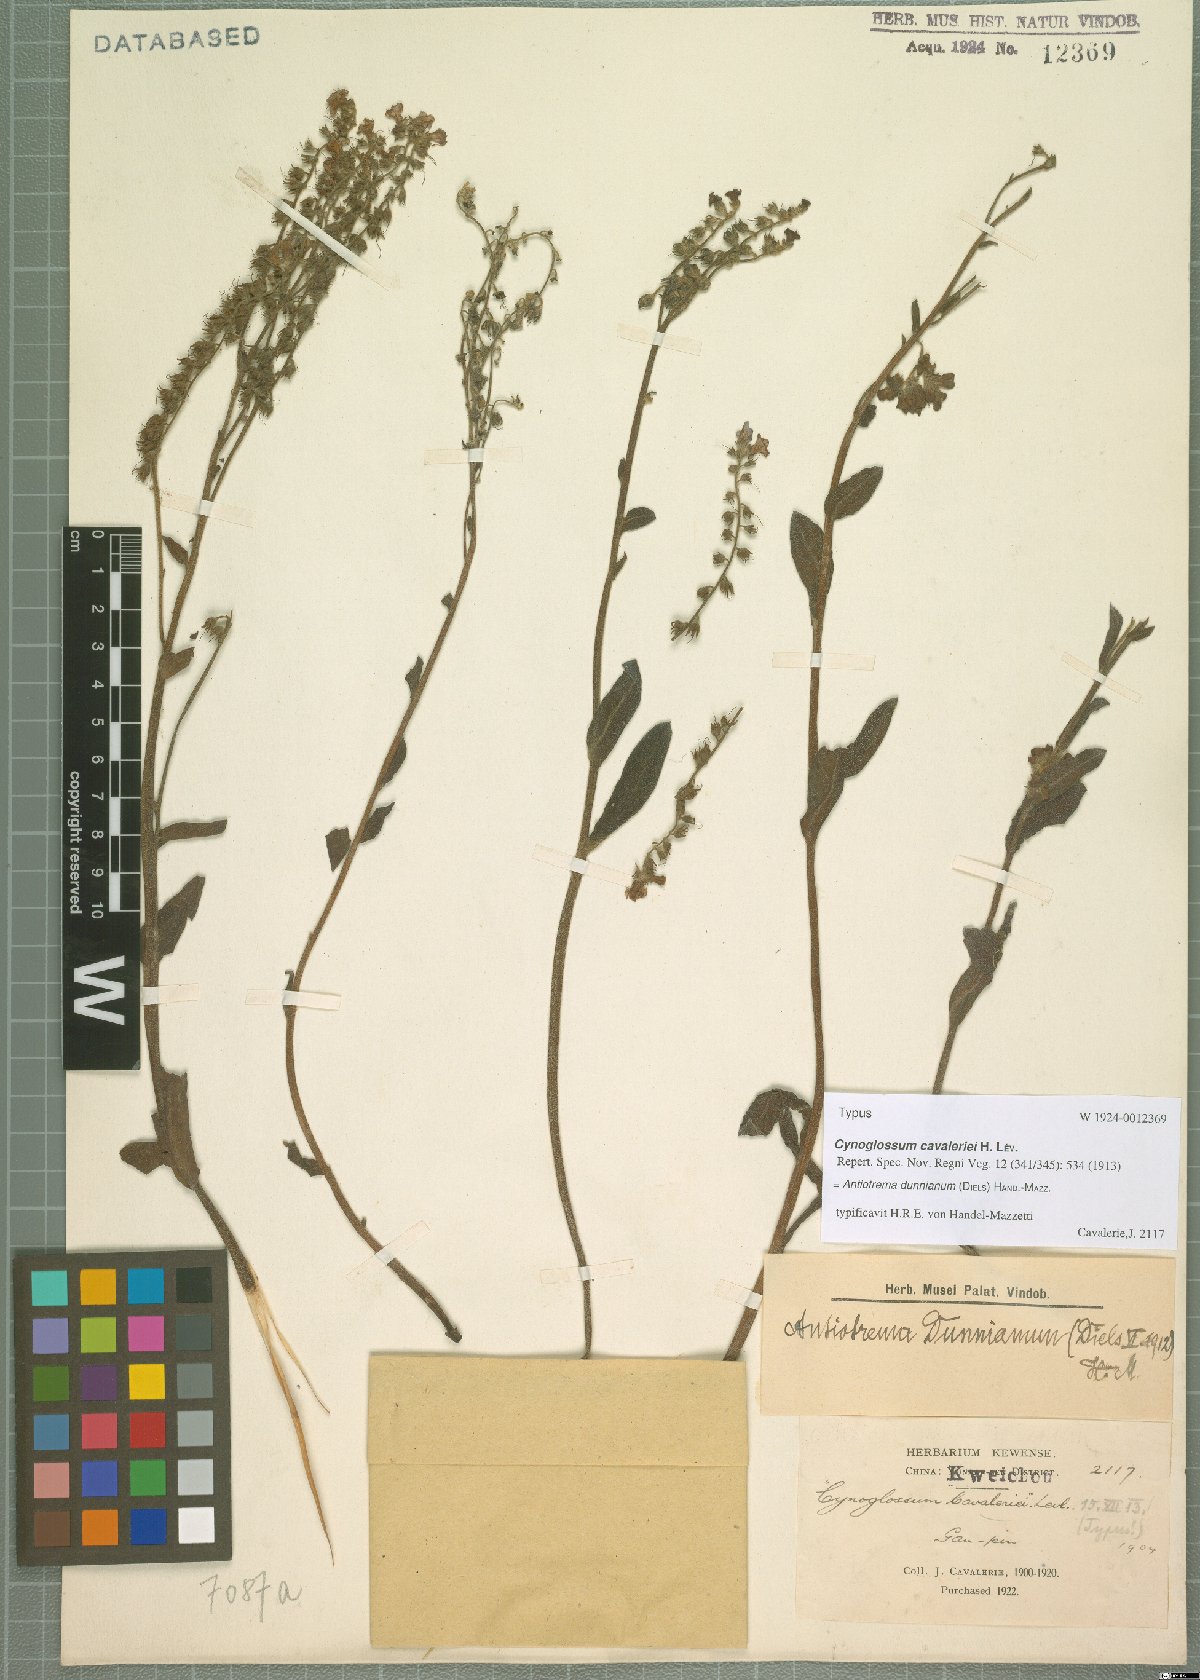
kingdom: Plantae
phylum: Tracheophyta
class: Magnoliopsida
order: Boraginales
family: Boraginaceae
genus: Antiotrema
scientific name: Antiotrema dunnianum
